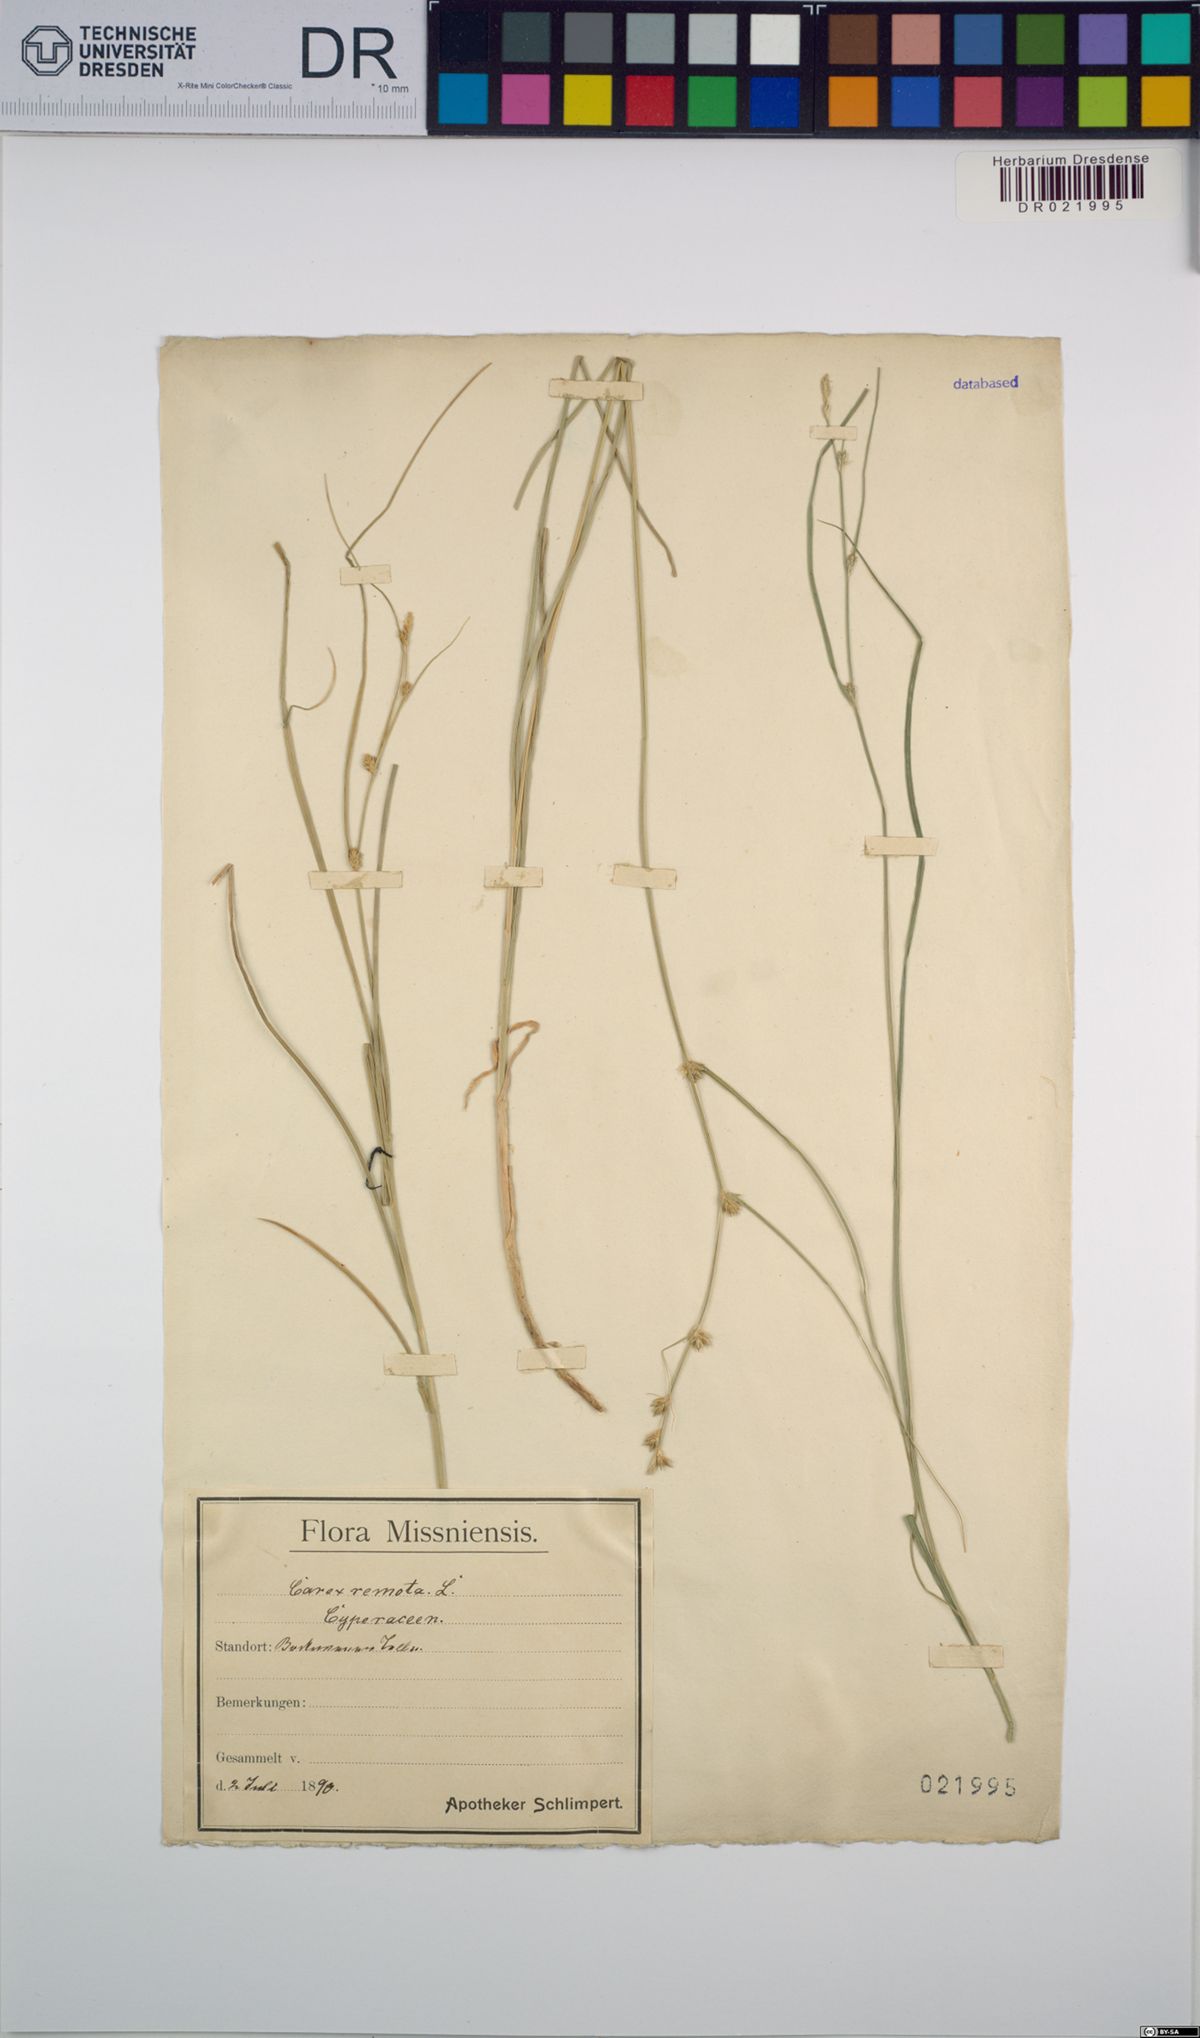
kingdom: Plantae
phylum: Tracheophyta
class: Liliopsida
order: Poales
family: Cyperaceae
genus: Carex
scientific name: Carex remota
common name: Remote sedge
